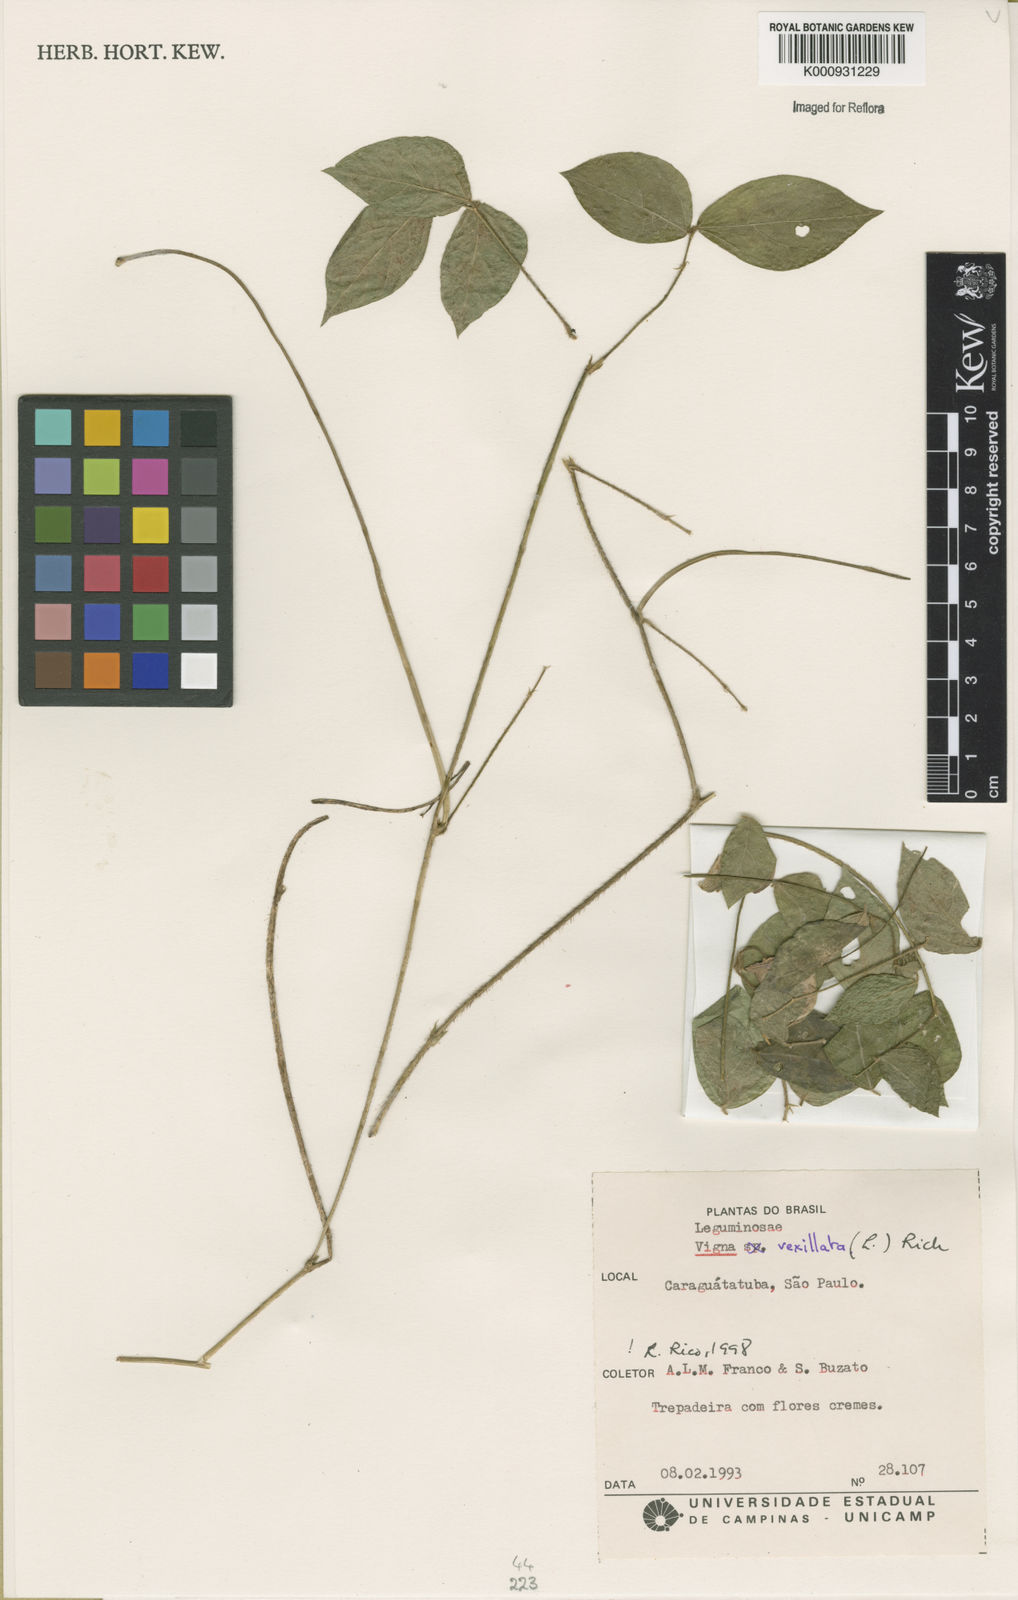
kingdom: Plantae
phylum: Tracheophyta
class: Magnoliopsida
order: Fabales
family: Fabaceae
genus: Vigna
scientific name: Vigna vexillata
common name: Zombi pea
